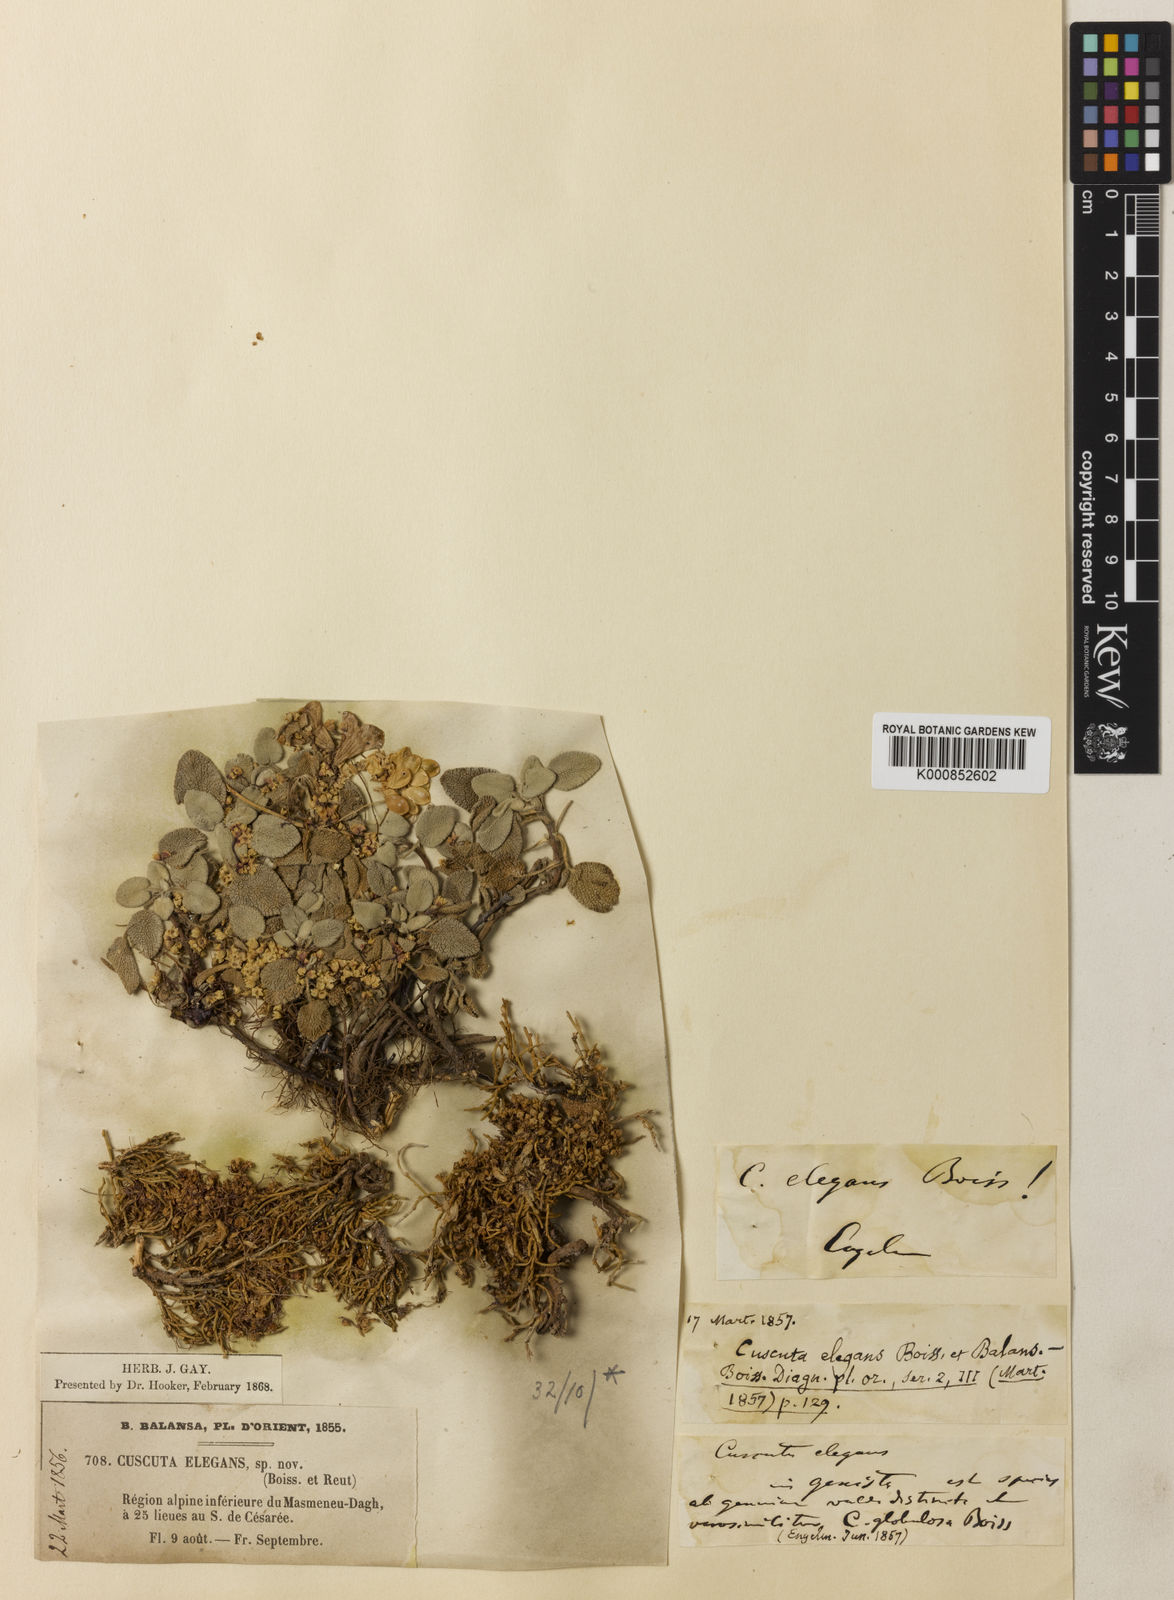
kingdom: Plantae
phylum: Tracheophyta
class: Magnoliopsida
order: Solanales
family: Convolvulaceae
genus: Cuscuta
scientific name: Cuscuta babylonica
